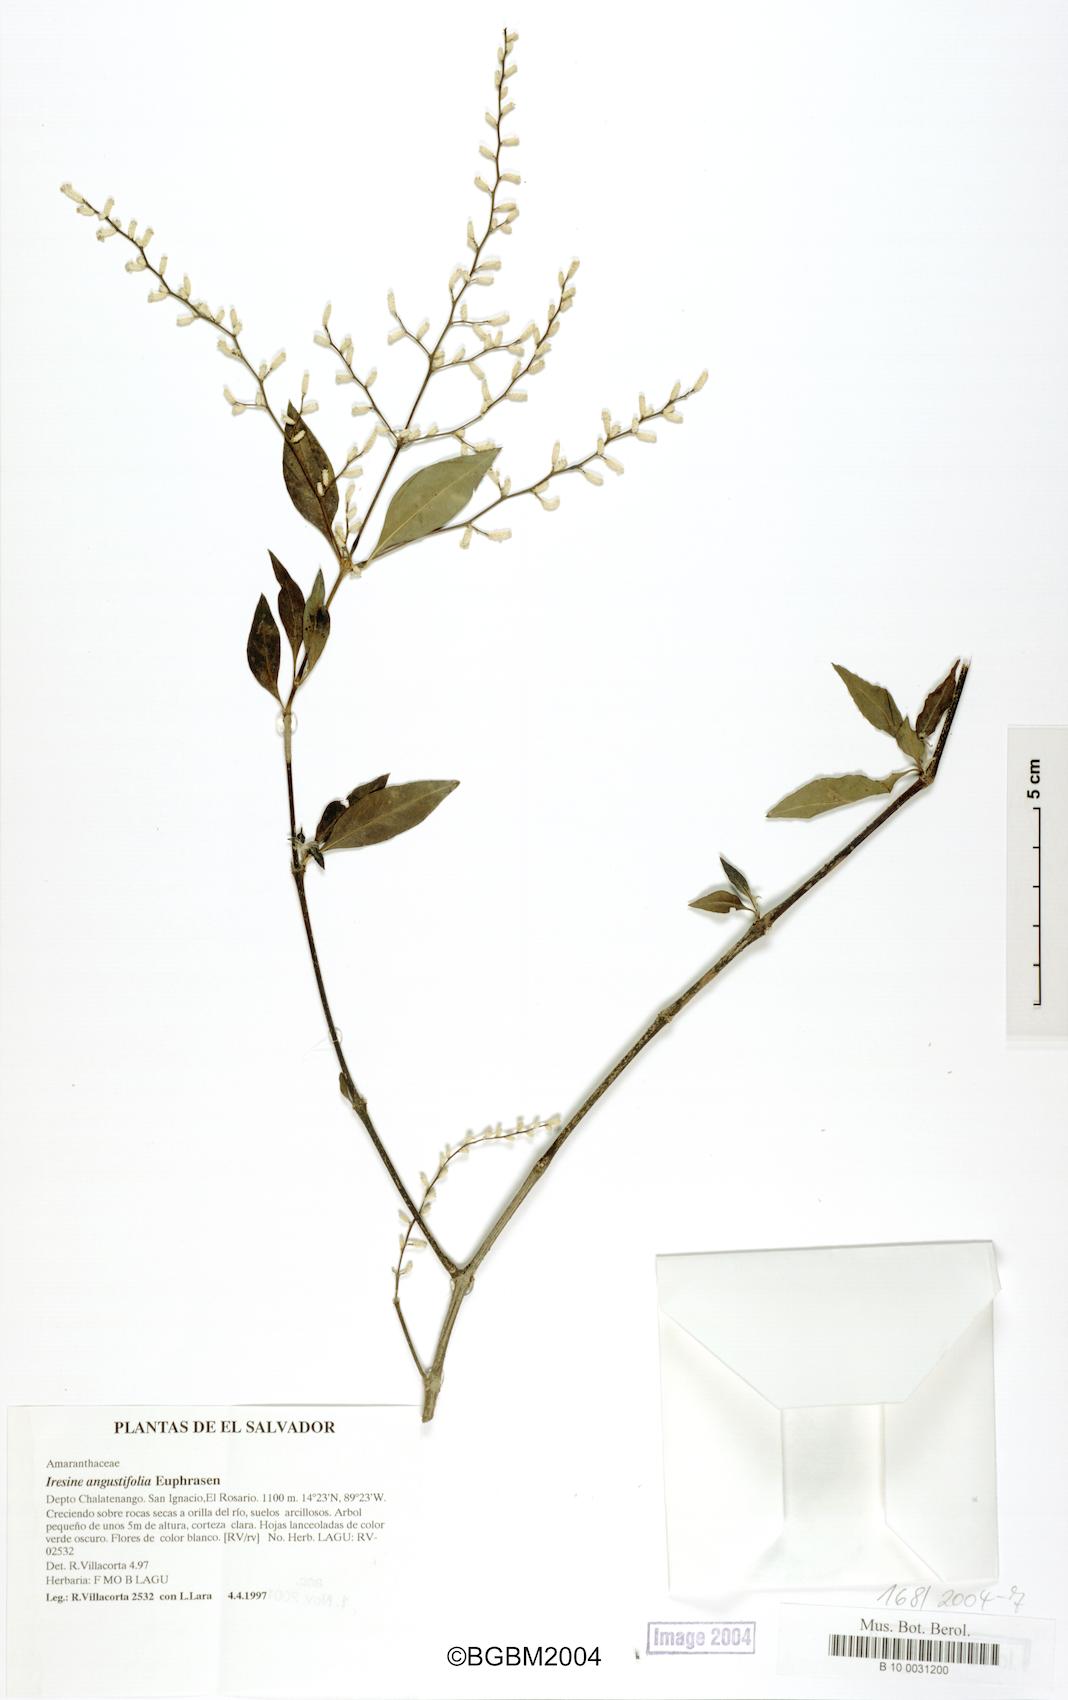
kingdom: Plantae
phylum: Tracheophyta
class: Magnoliopsida
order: Caryophyllales
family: Amaranthaceae
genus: Iresine
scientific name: Iresine angustifolia
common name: White snowplant
